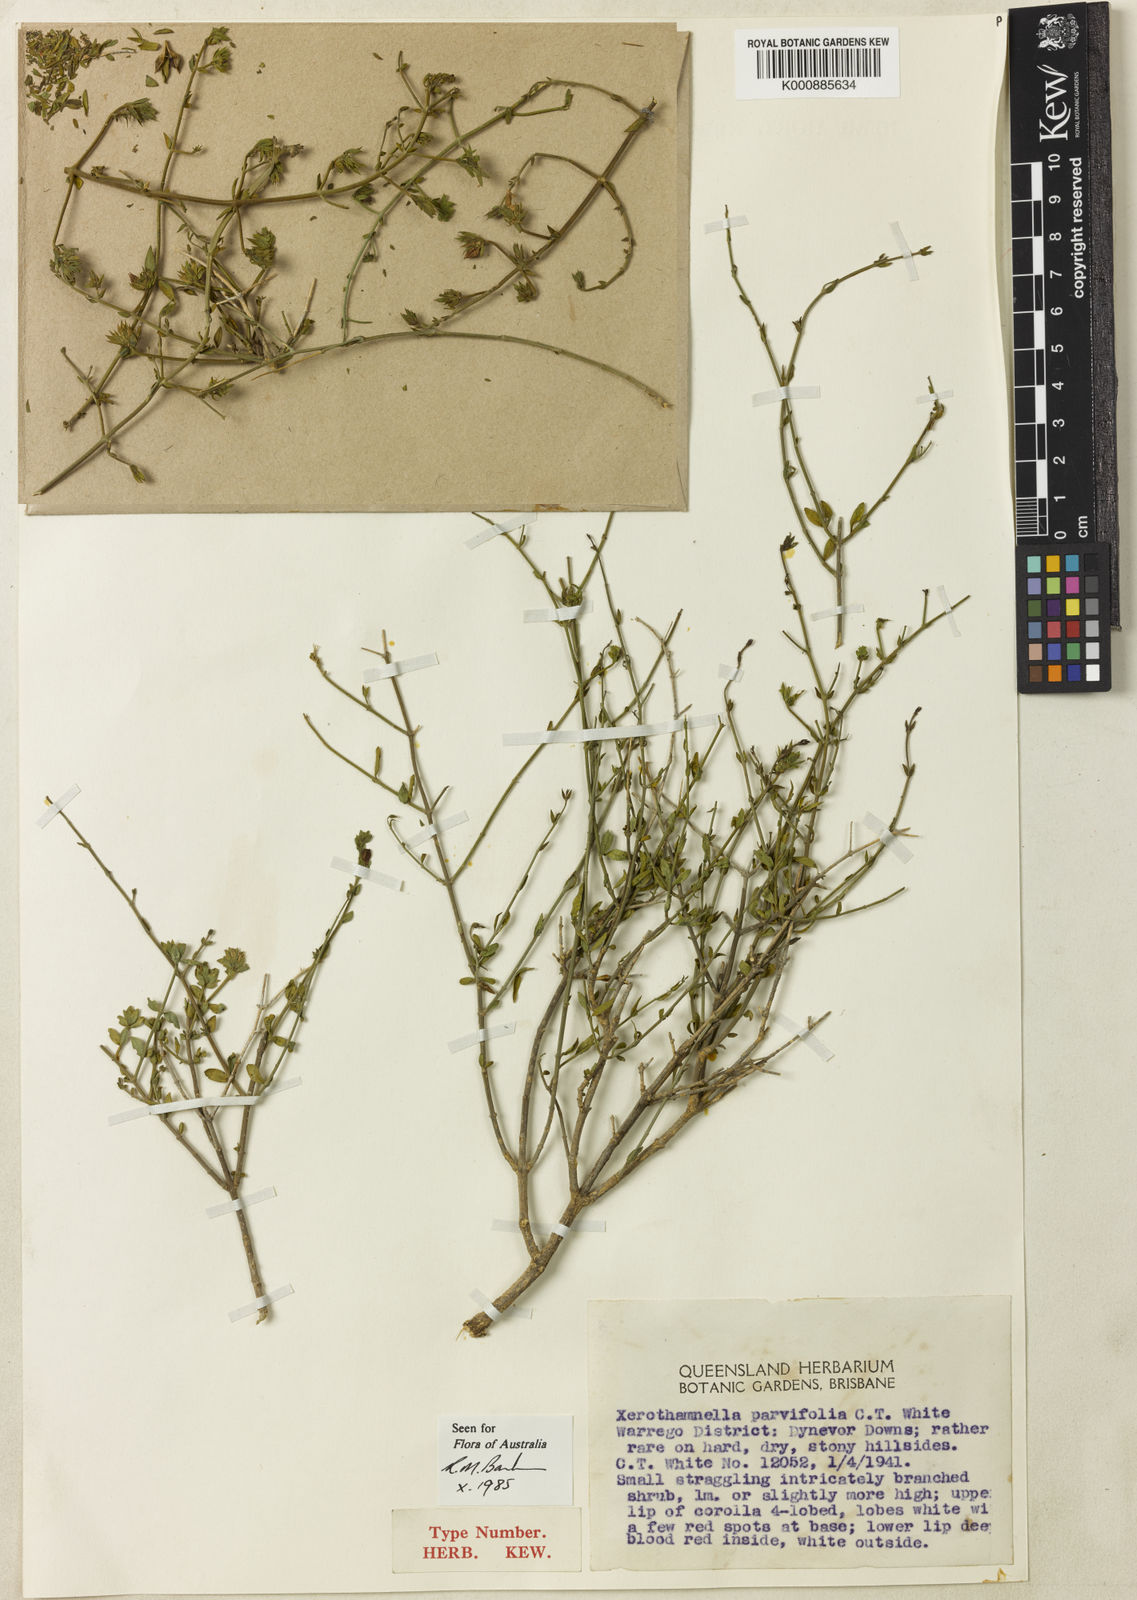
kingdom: Plantae
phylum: Tracheophyta
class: Magnoliopsida
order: Lamiales
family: Acanthaceae
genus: Xerothamnella
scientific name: Xerothamnella parvifolia
